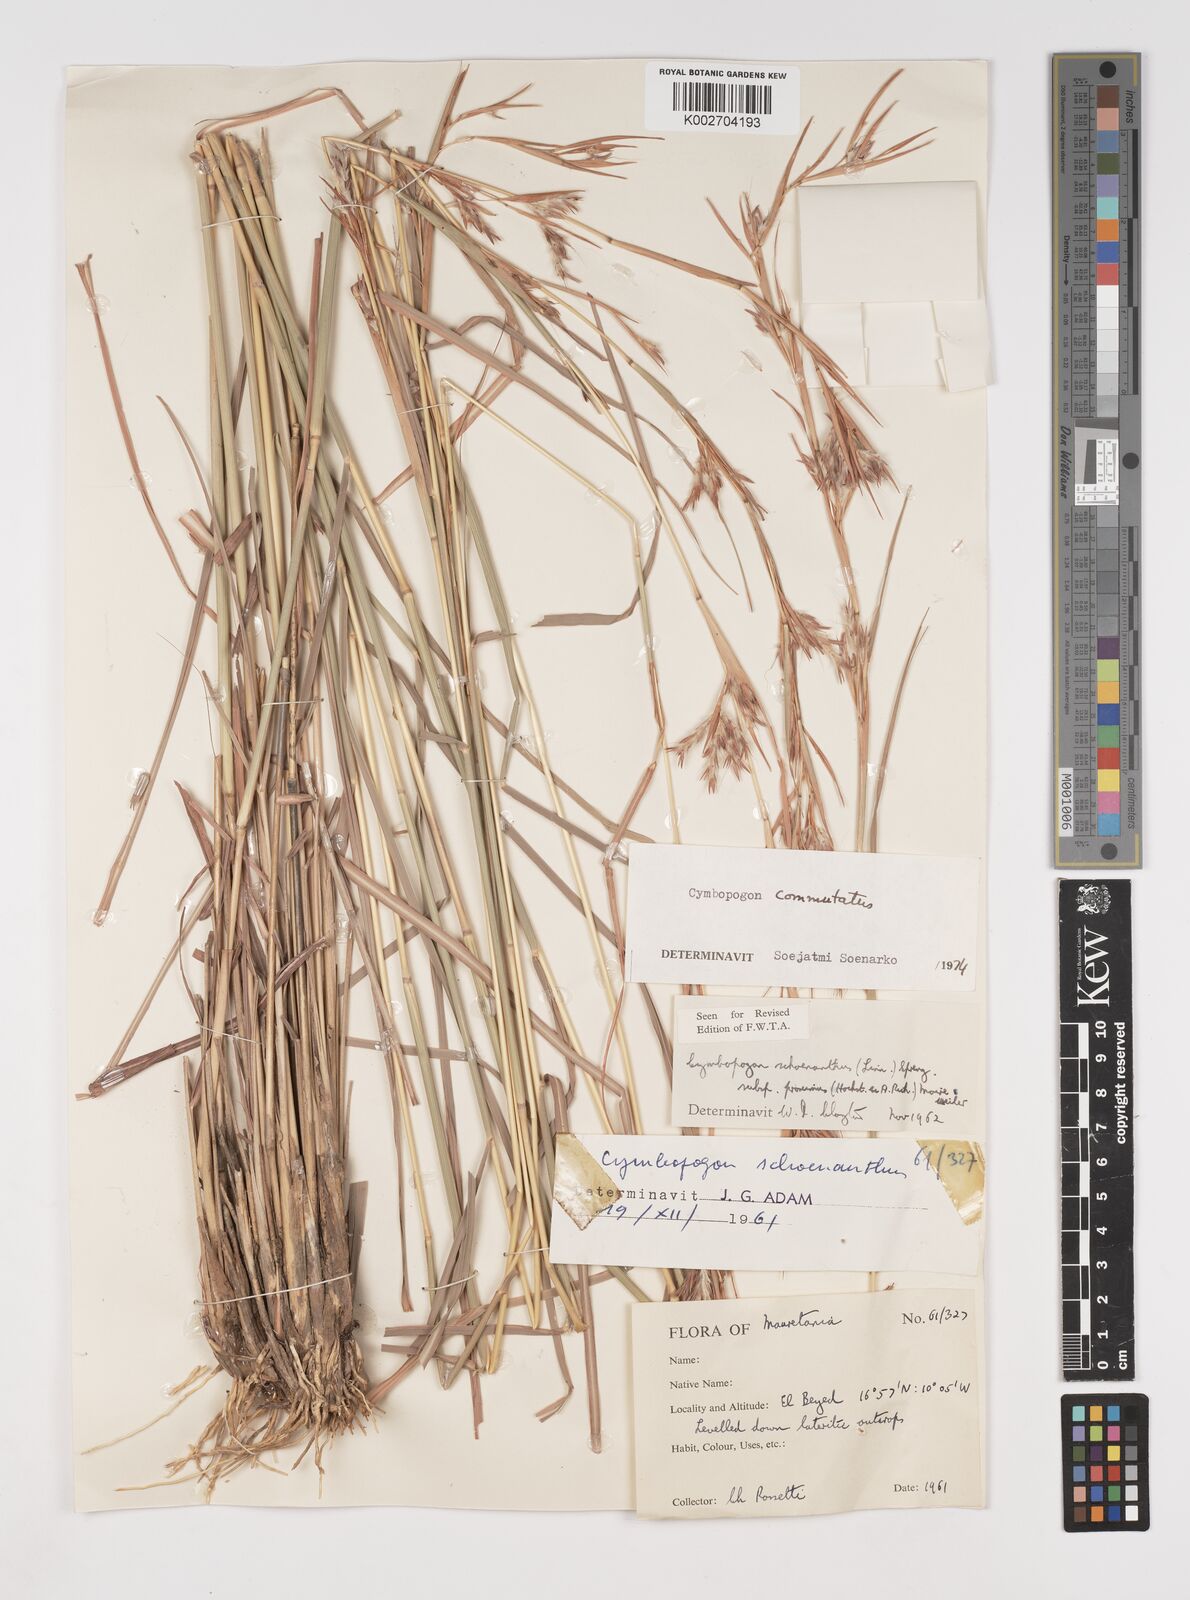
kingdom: Plantae
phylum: Tracheophyta
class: Liliopsida
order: Poales
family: Poaceae
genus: Cymbopogon
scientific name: Cymbopogon schoenanthus
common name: Geranium grass
